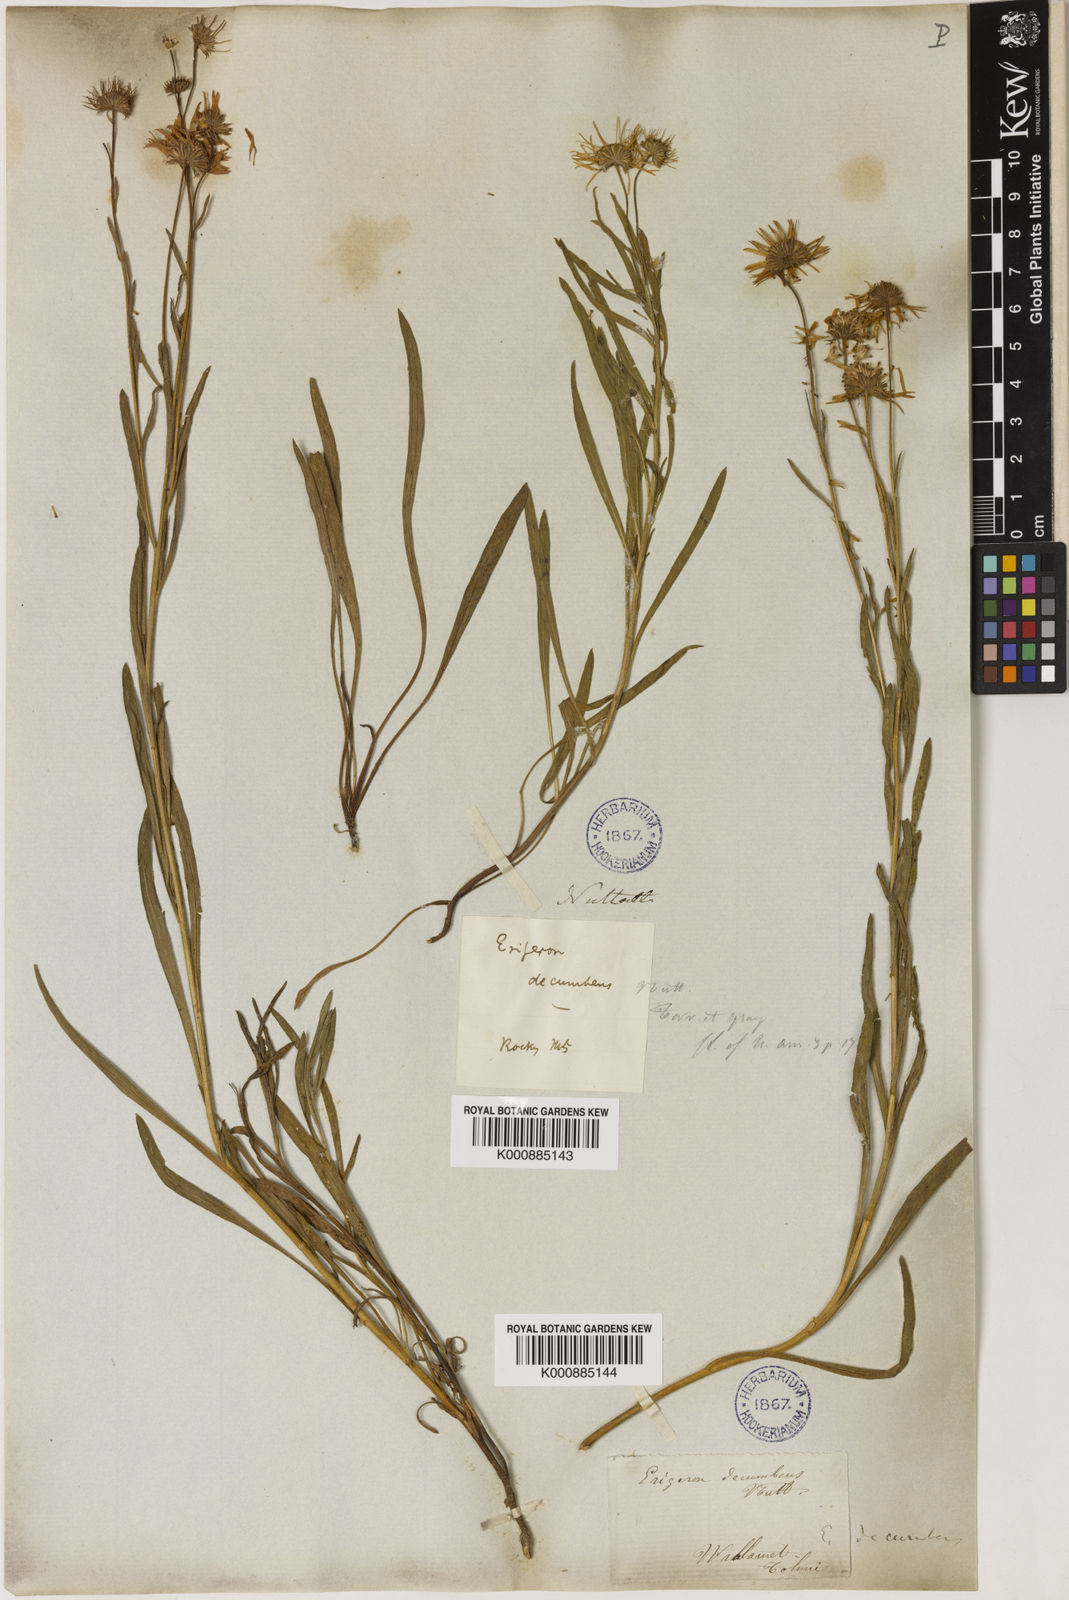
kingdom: Plantae
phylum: Tracheophyta
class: Magnoliopsida
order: Asterales
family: Asteraceae
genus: Erigeron
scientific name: Erigeron decumbens
